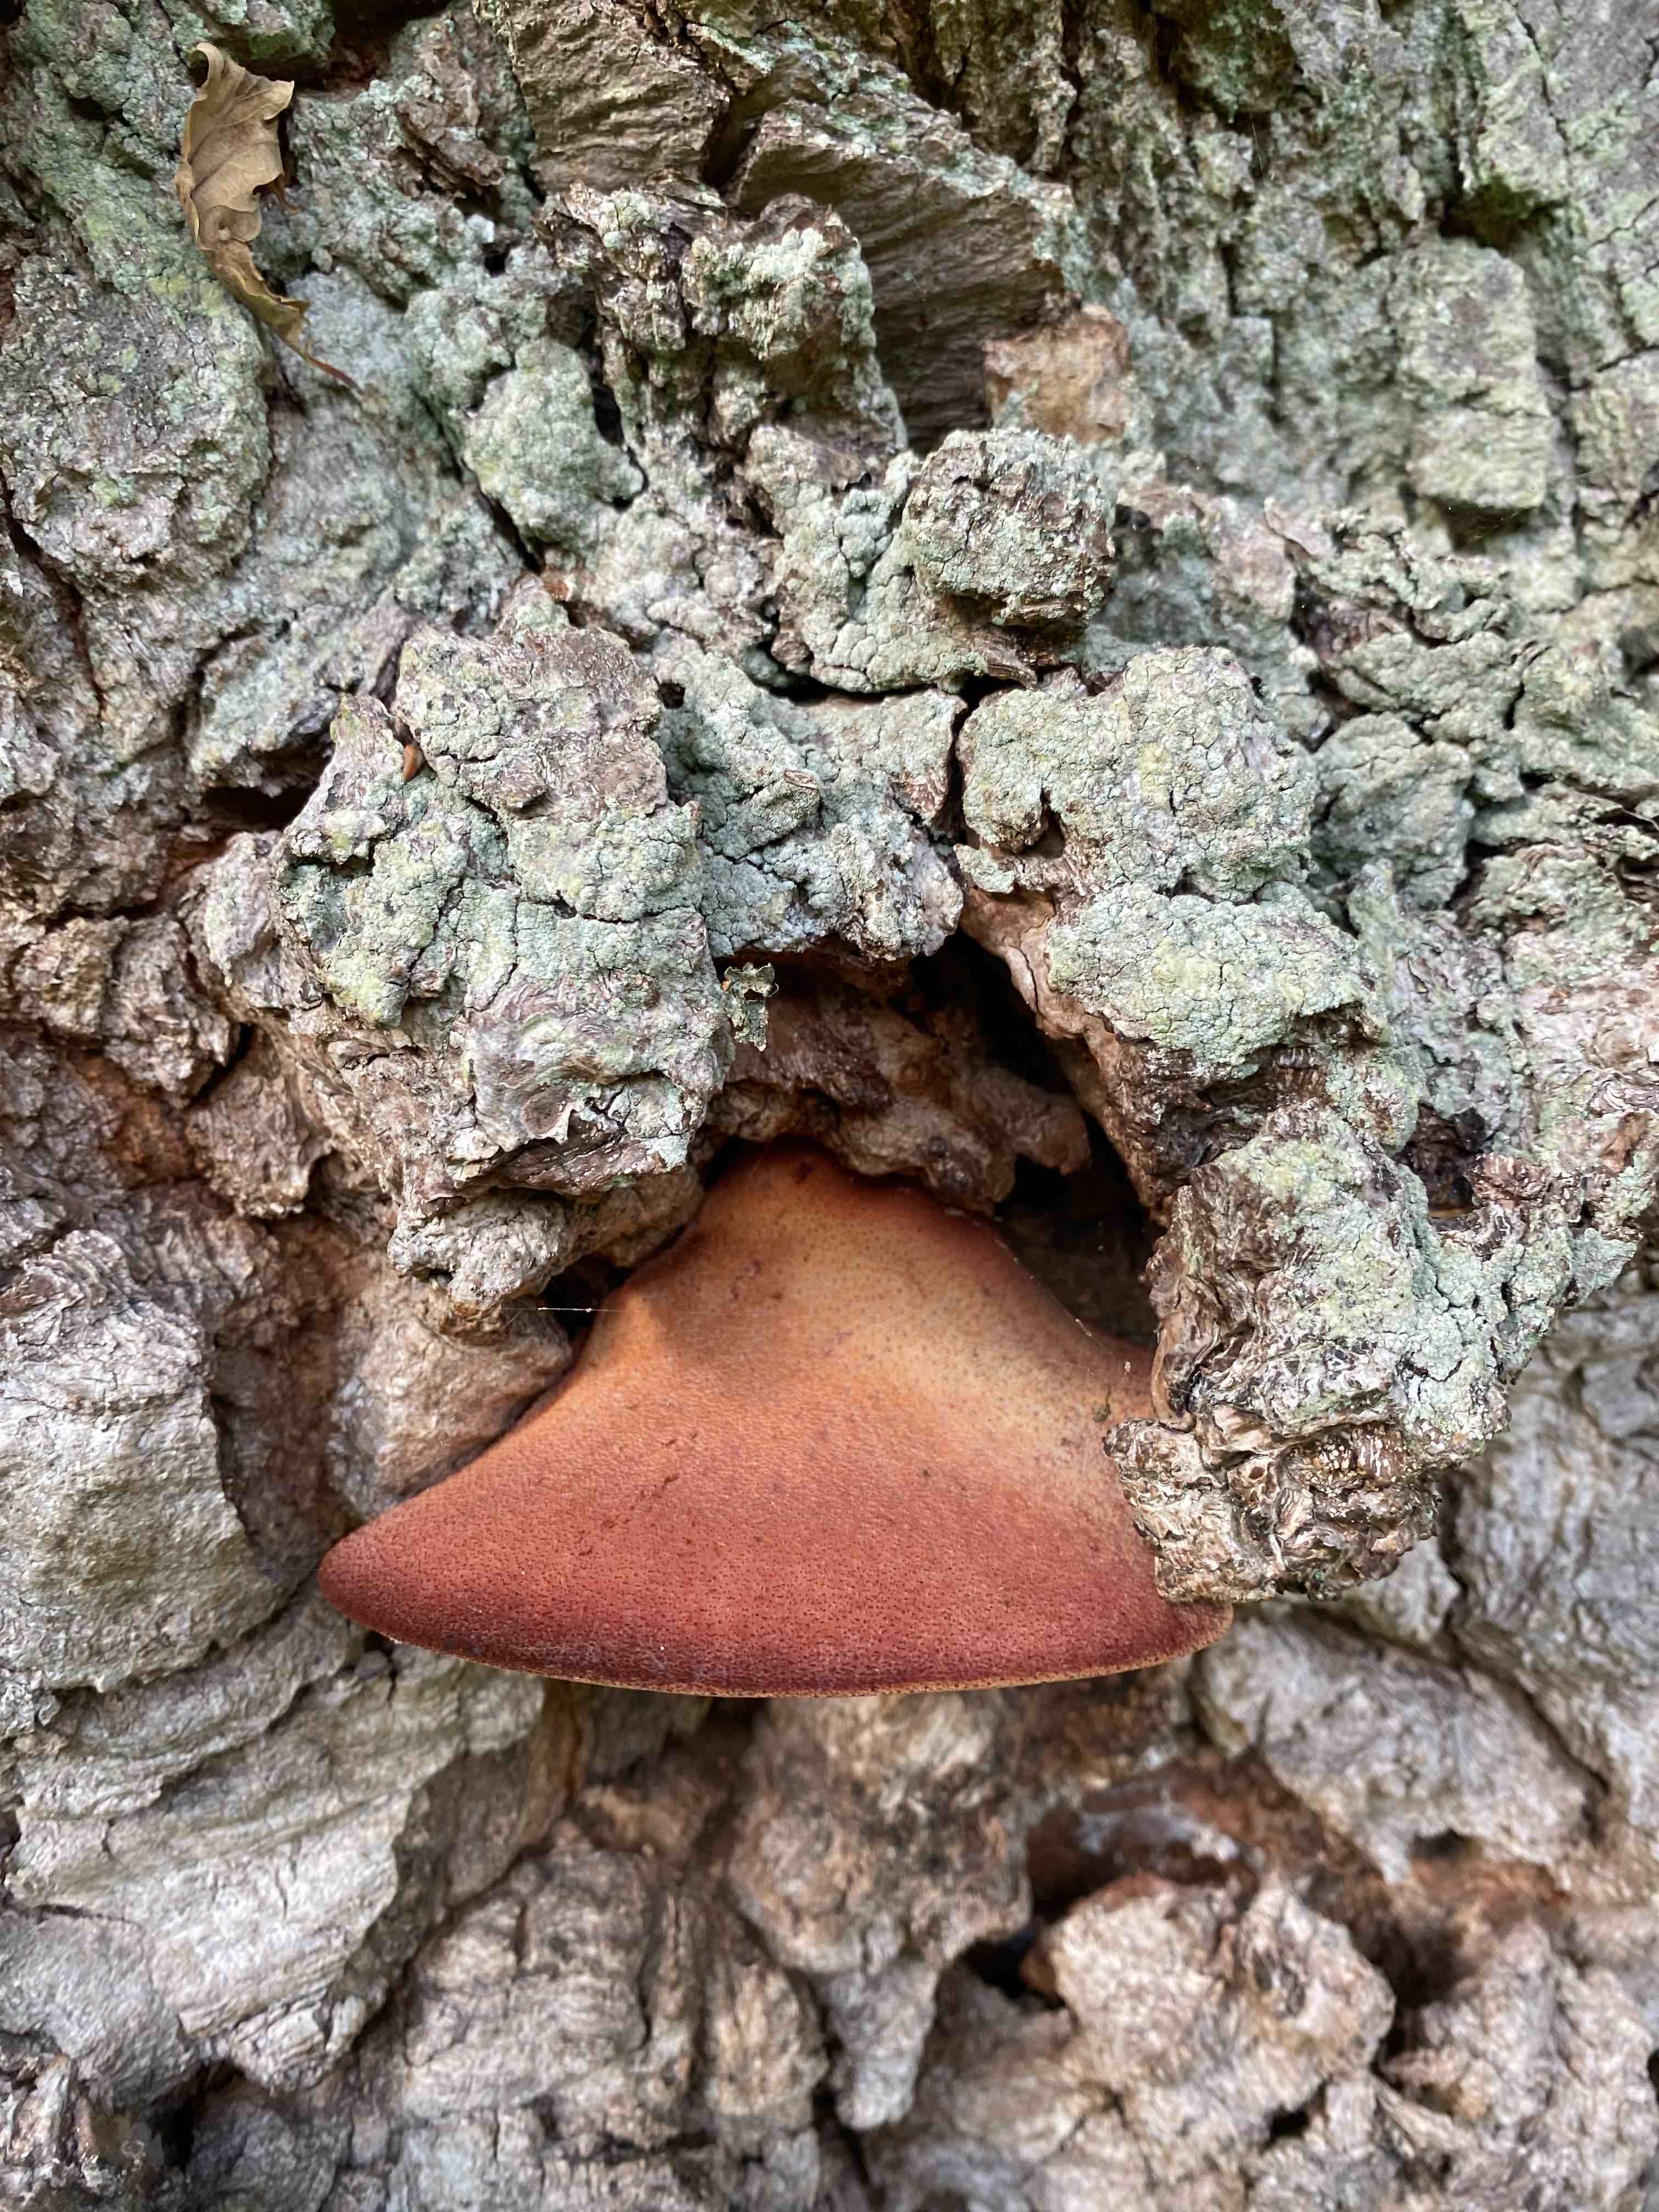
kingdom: Fungi
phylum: Basidiomycota
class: Agaricomycetes
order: Agaricales
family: Fistulinaceae
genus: Fistulina
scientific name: Fistulina hepatica
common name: oksetunge
